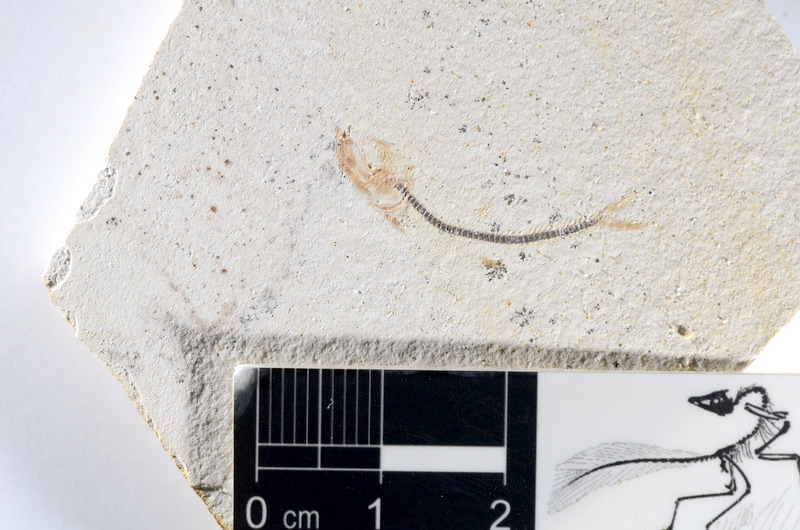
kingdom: Animalia
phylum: Chordata
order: Salmoniformes
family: Orthogonikleithridae
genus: Orthogonikleithrus
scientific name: Orthogonikleithrus hoelli
